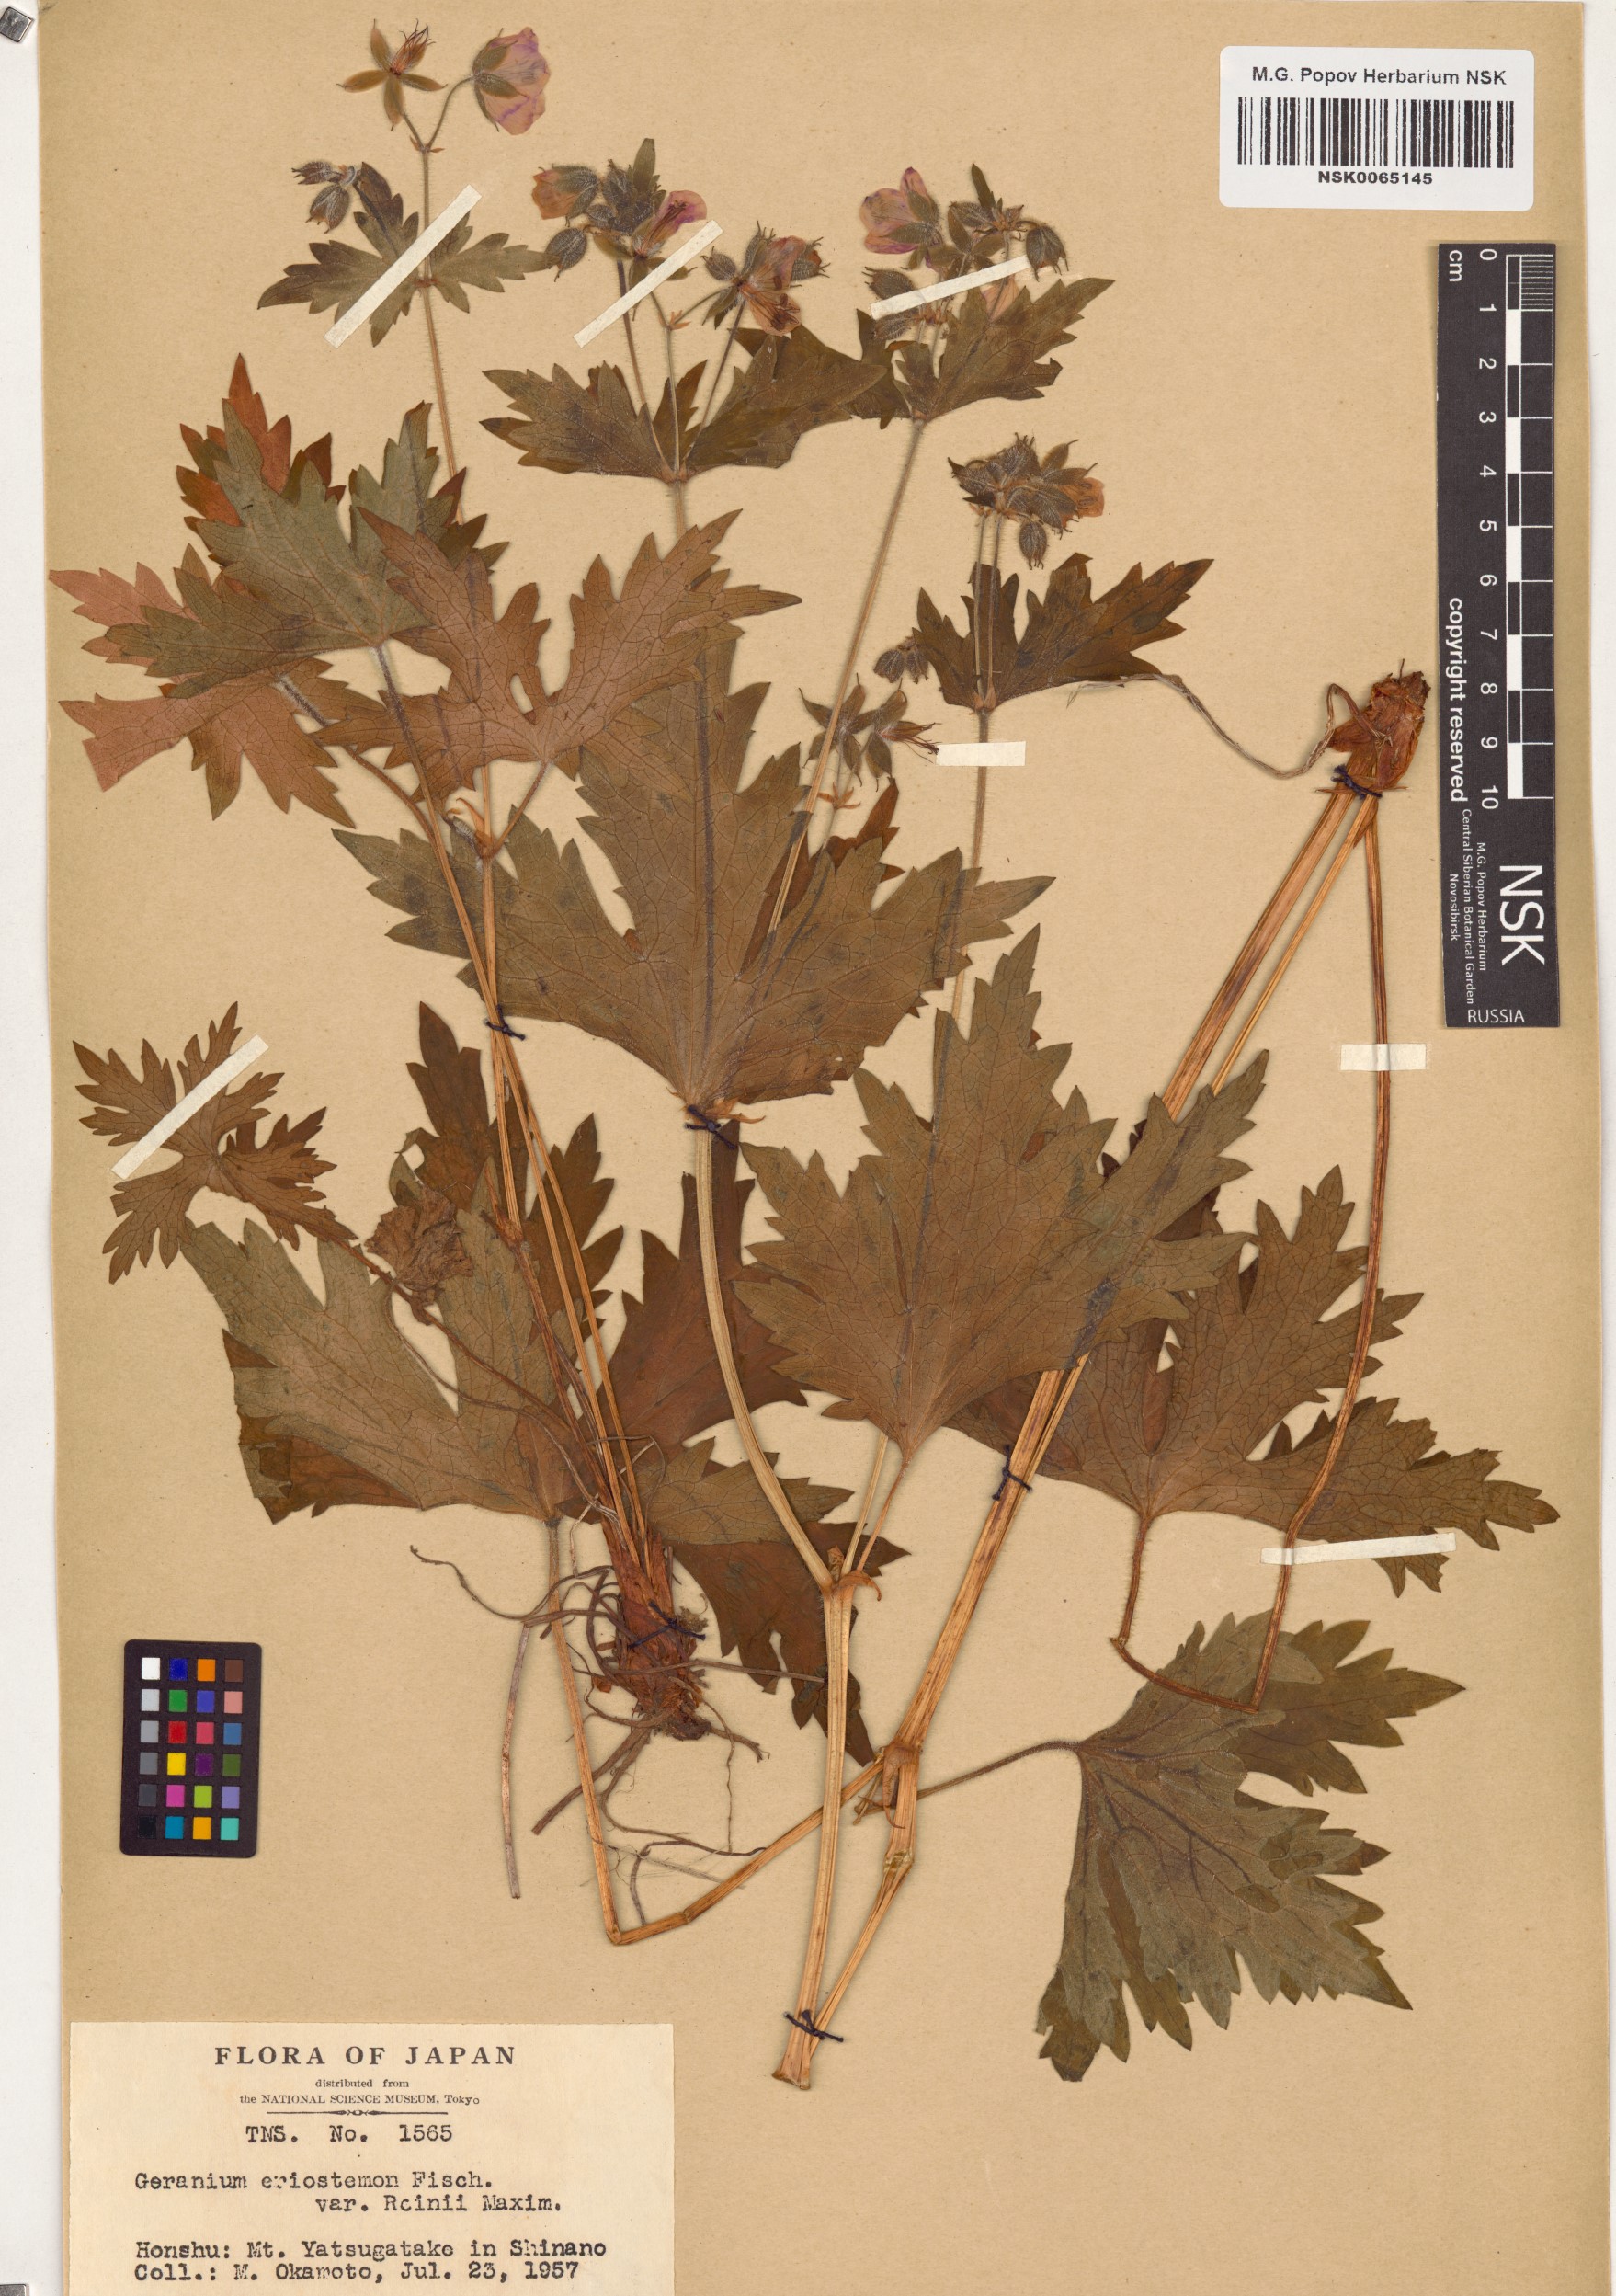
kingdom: Plantae
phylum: Tracheophyta
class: Magnoliopsida
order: Geraniales
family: Geraniaceae
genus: Geranium
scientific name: Geranium reinii
